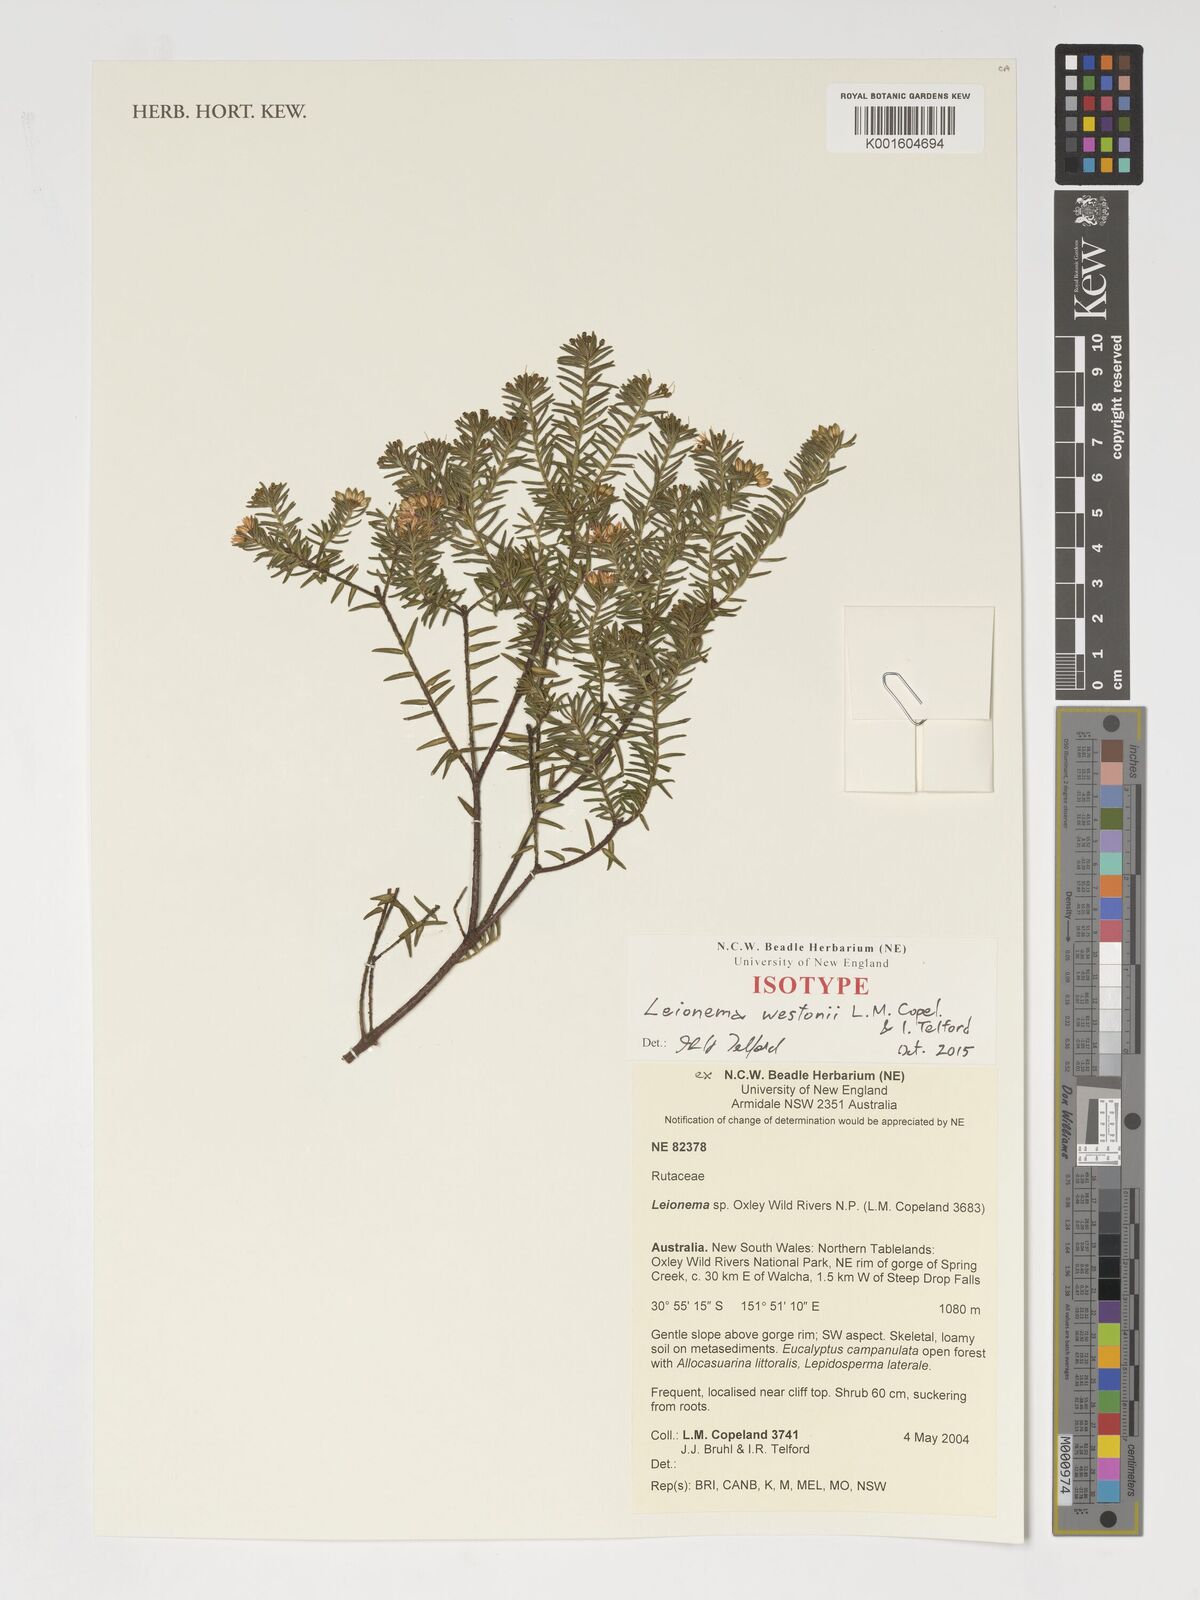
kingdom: Plantae
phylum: Tracheophyta
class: Magnoliopsida
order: Sapindales
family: Rutaceae
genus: Leionema
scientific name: Leionema westonii
